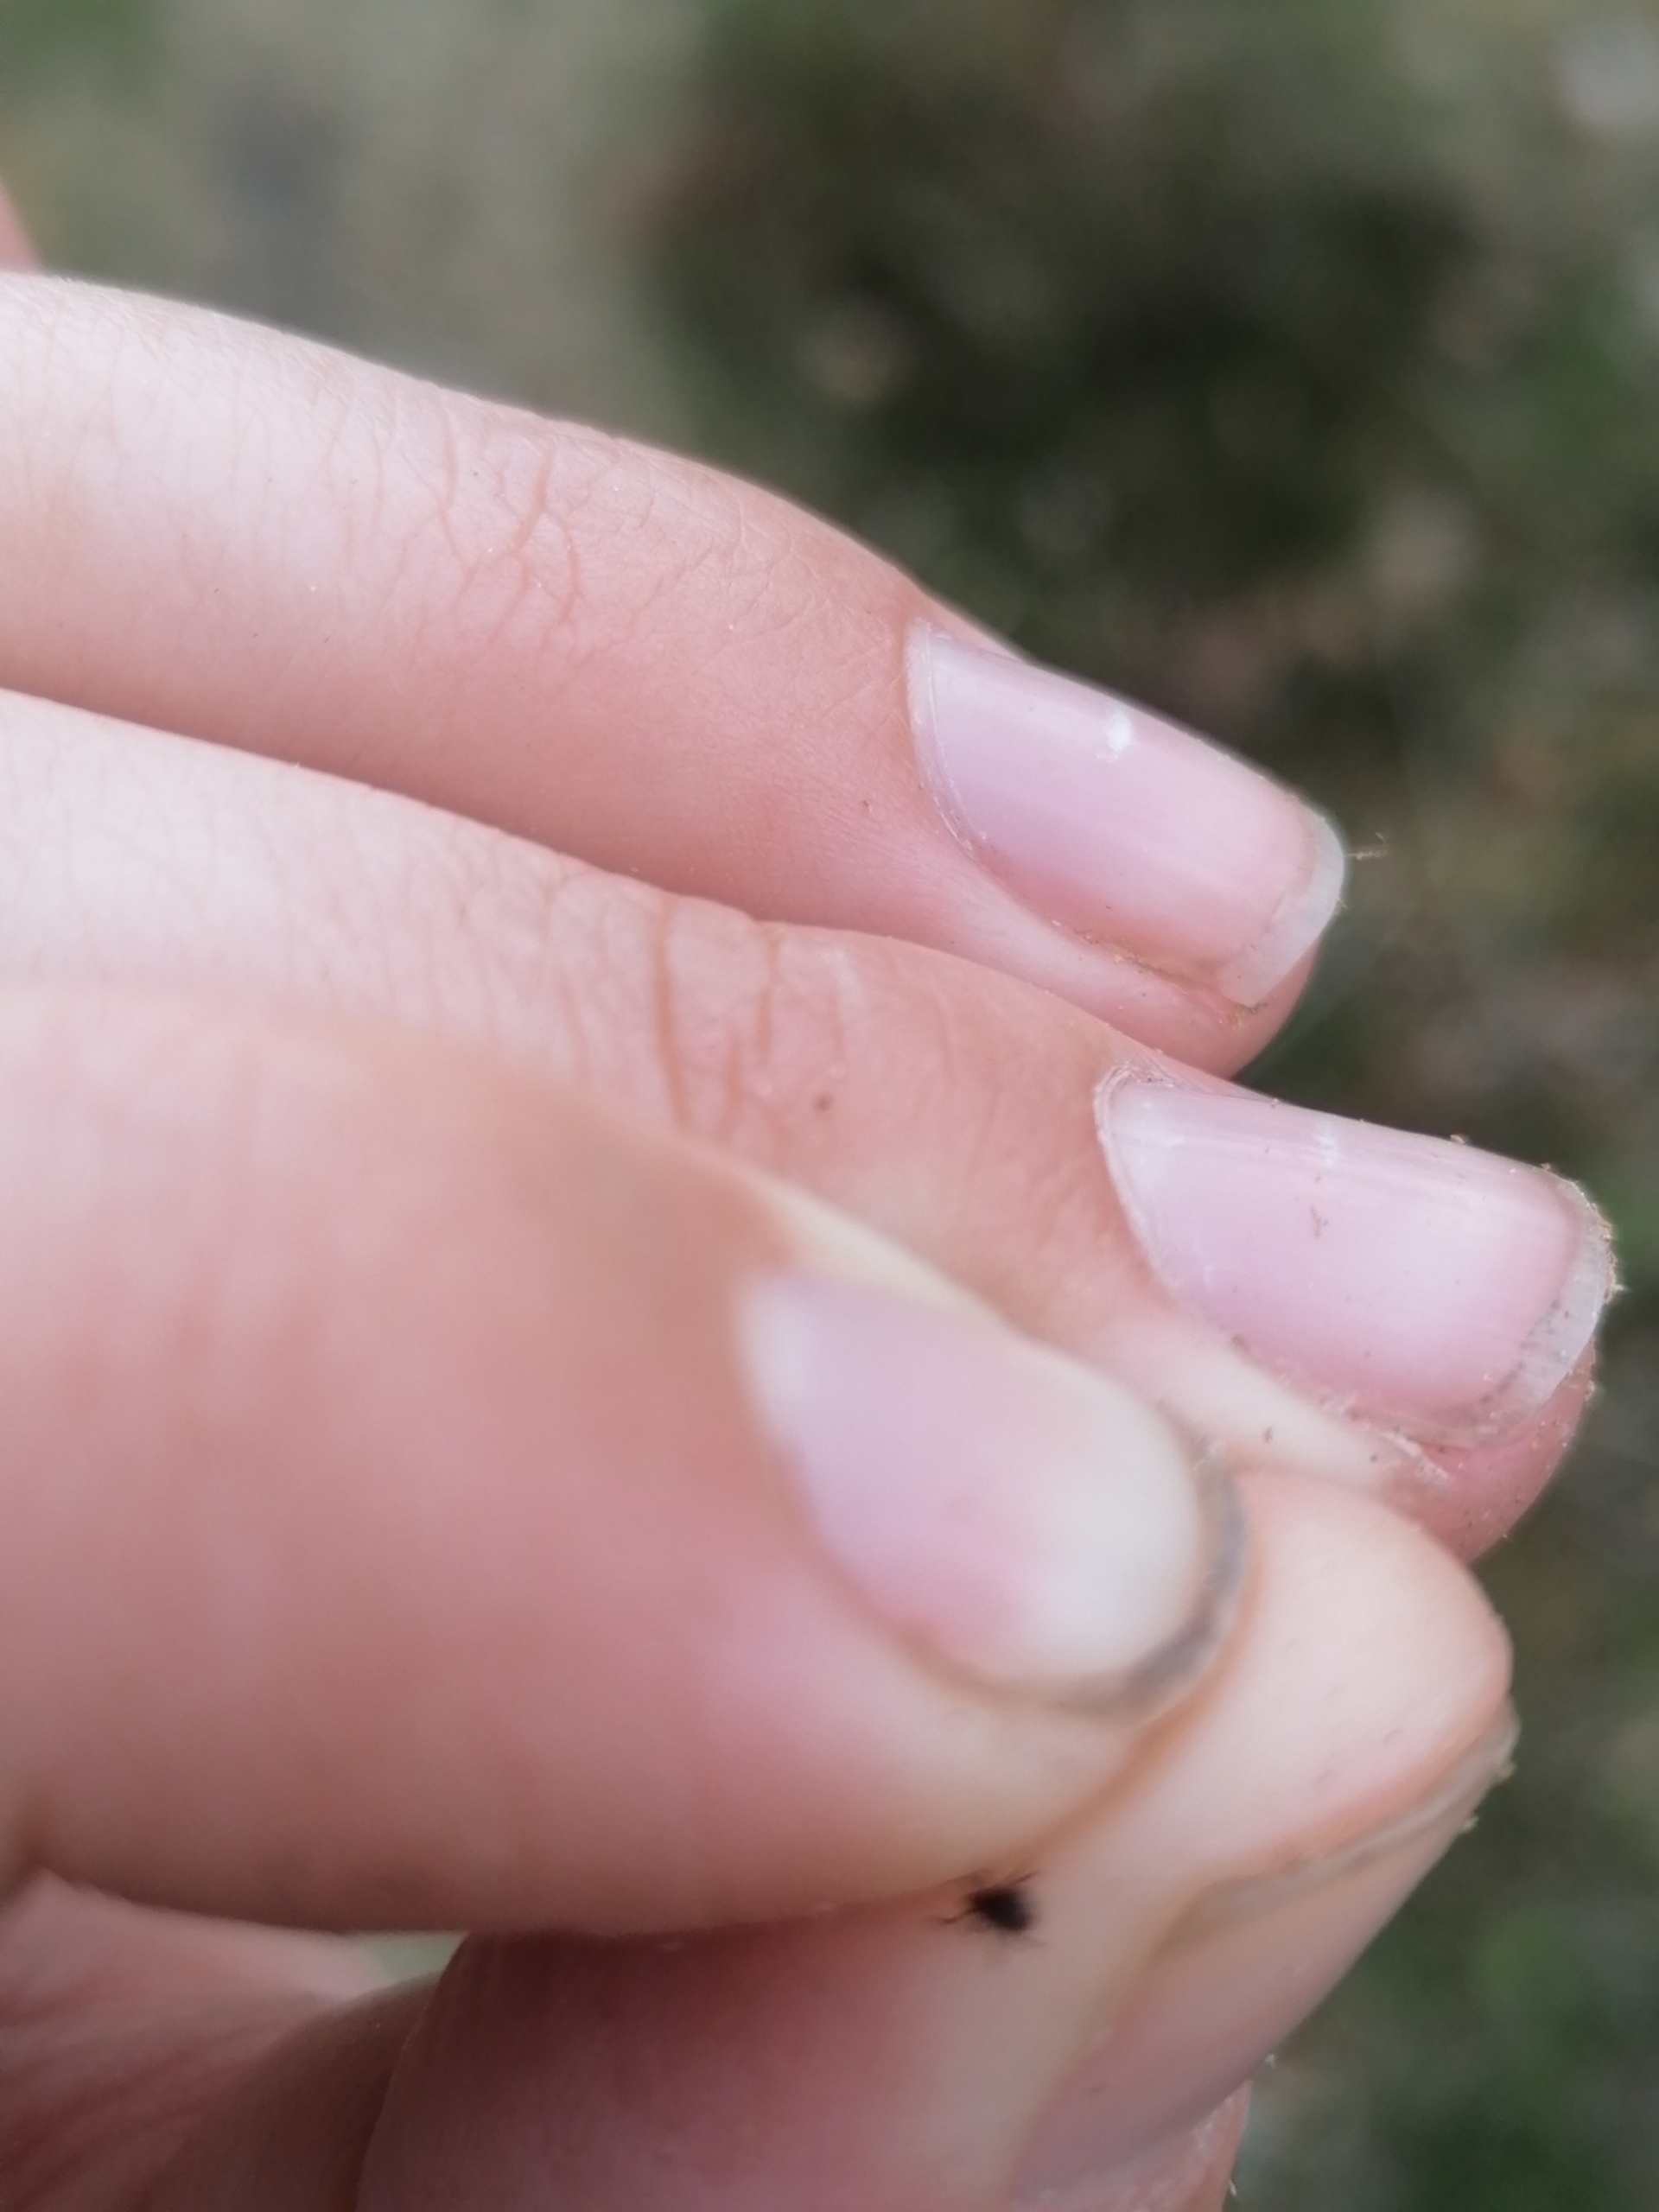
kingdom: Animalia
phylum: Arthropoda
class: Arachnida
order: Ixodida
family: Ixodidae
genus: Ixodes
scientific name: Ixodes ricinus
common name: Skovflåt
